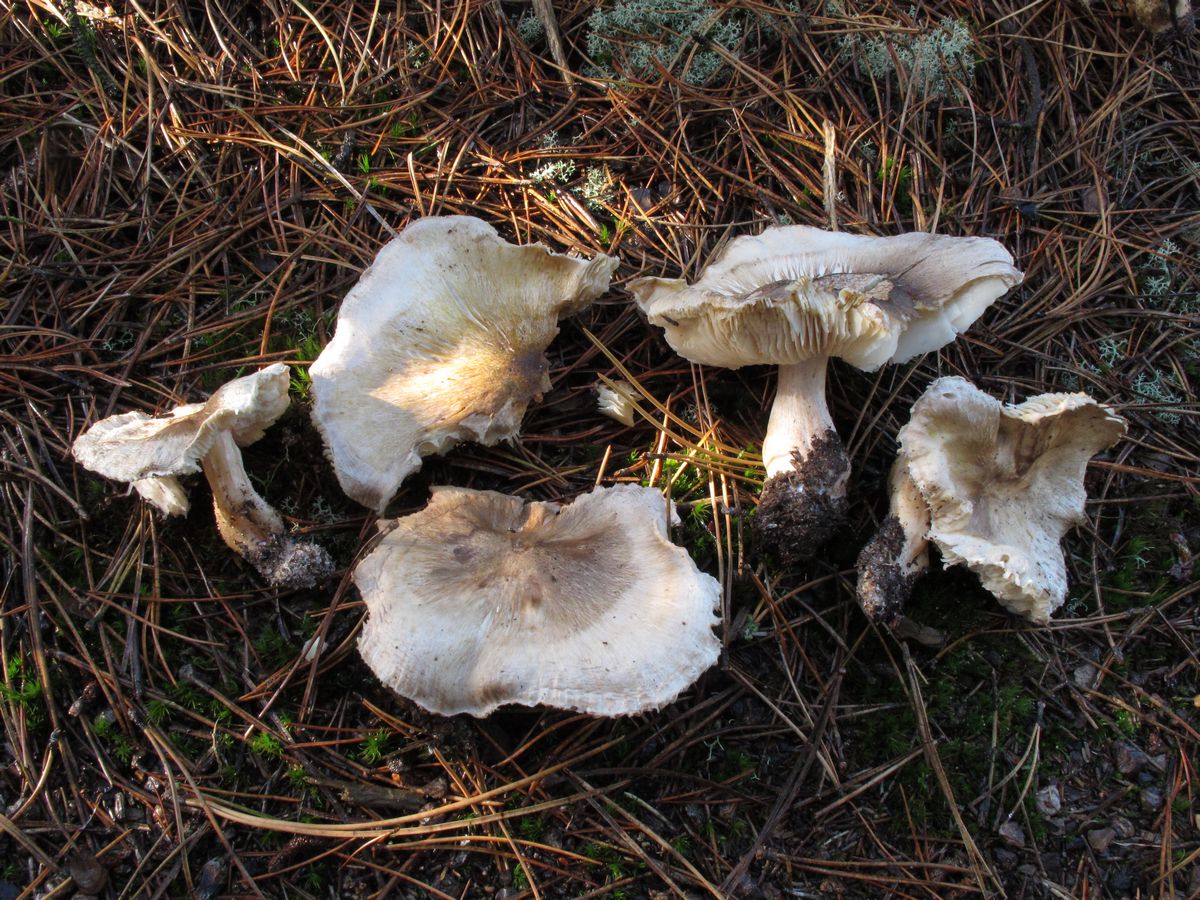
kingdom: Fungi
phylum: Basidiomycota
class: Agaricomycetes
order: Agaricales
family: Tricholomataceae
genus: Tricholoma
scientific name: Tricholoma arvernense
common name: kantet ridderhat
